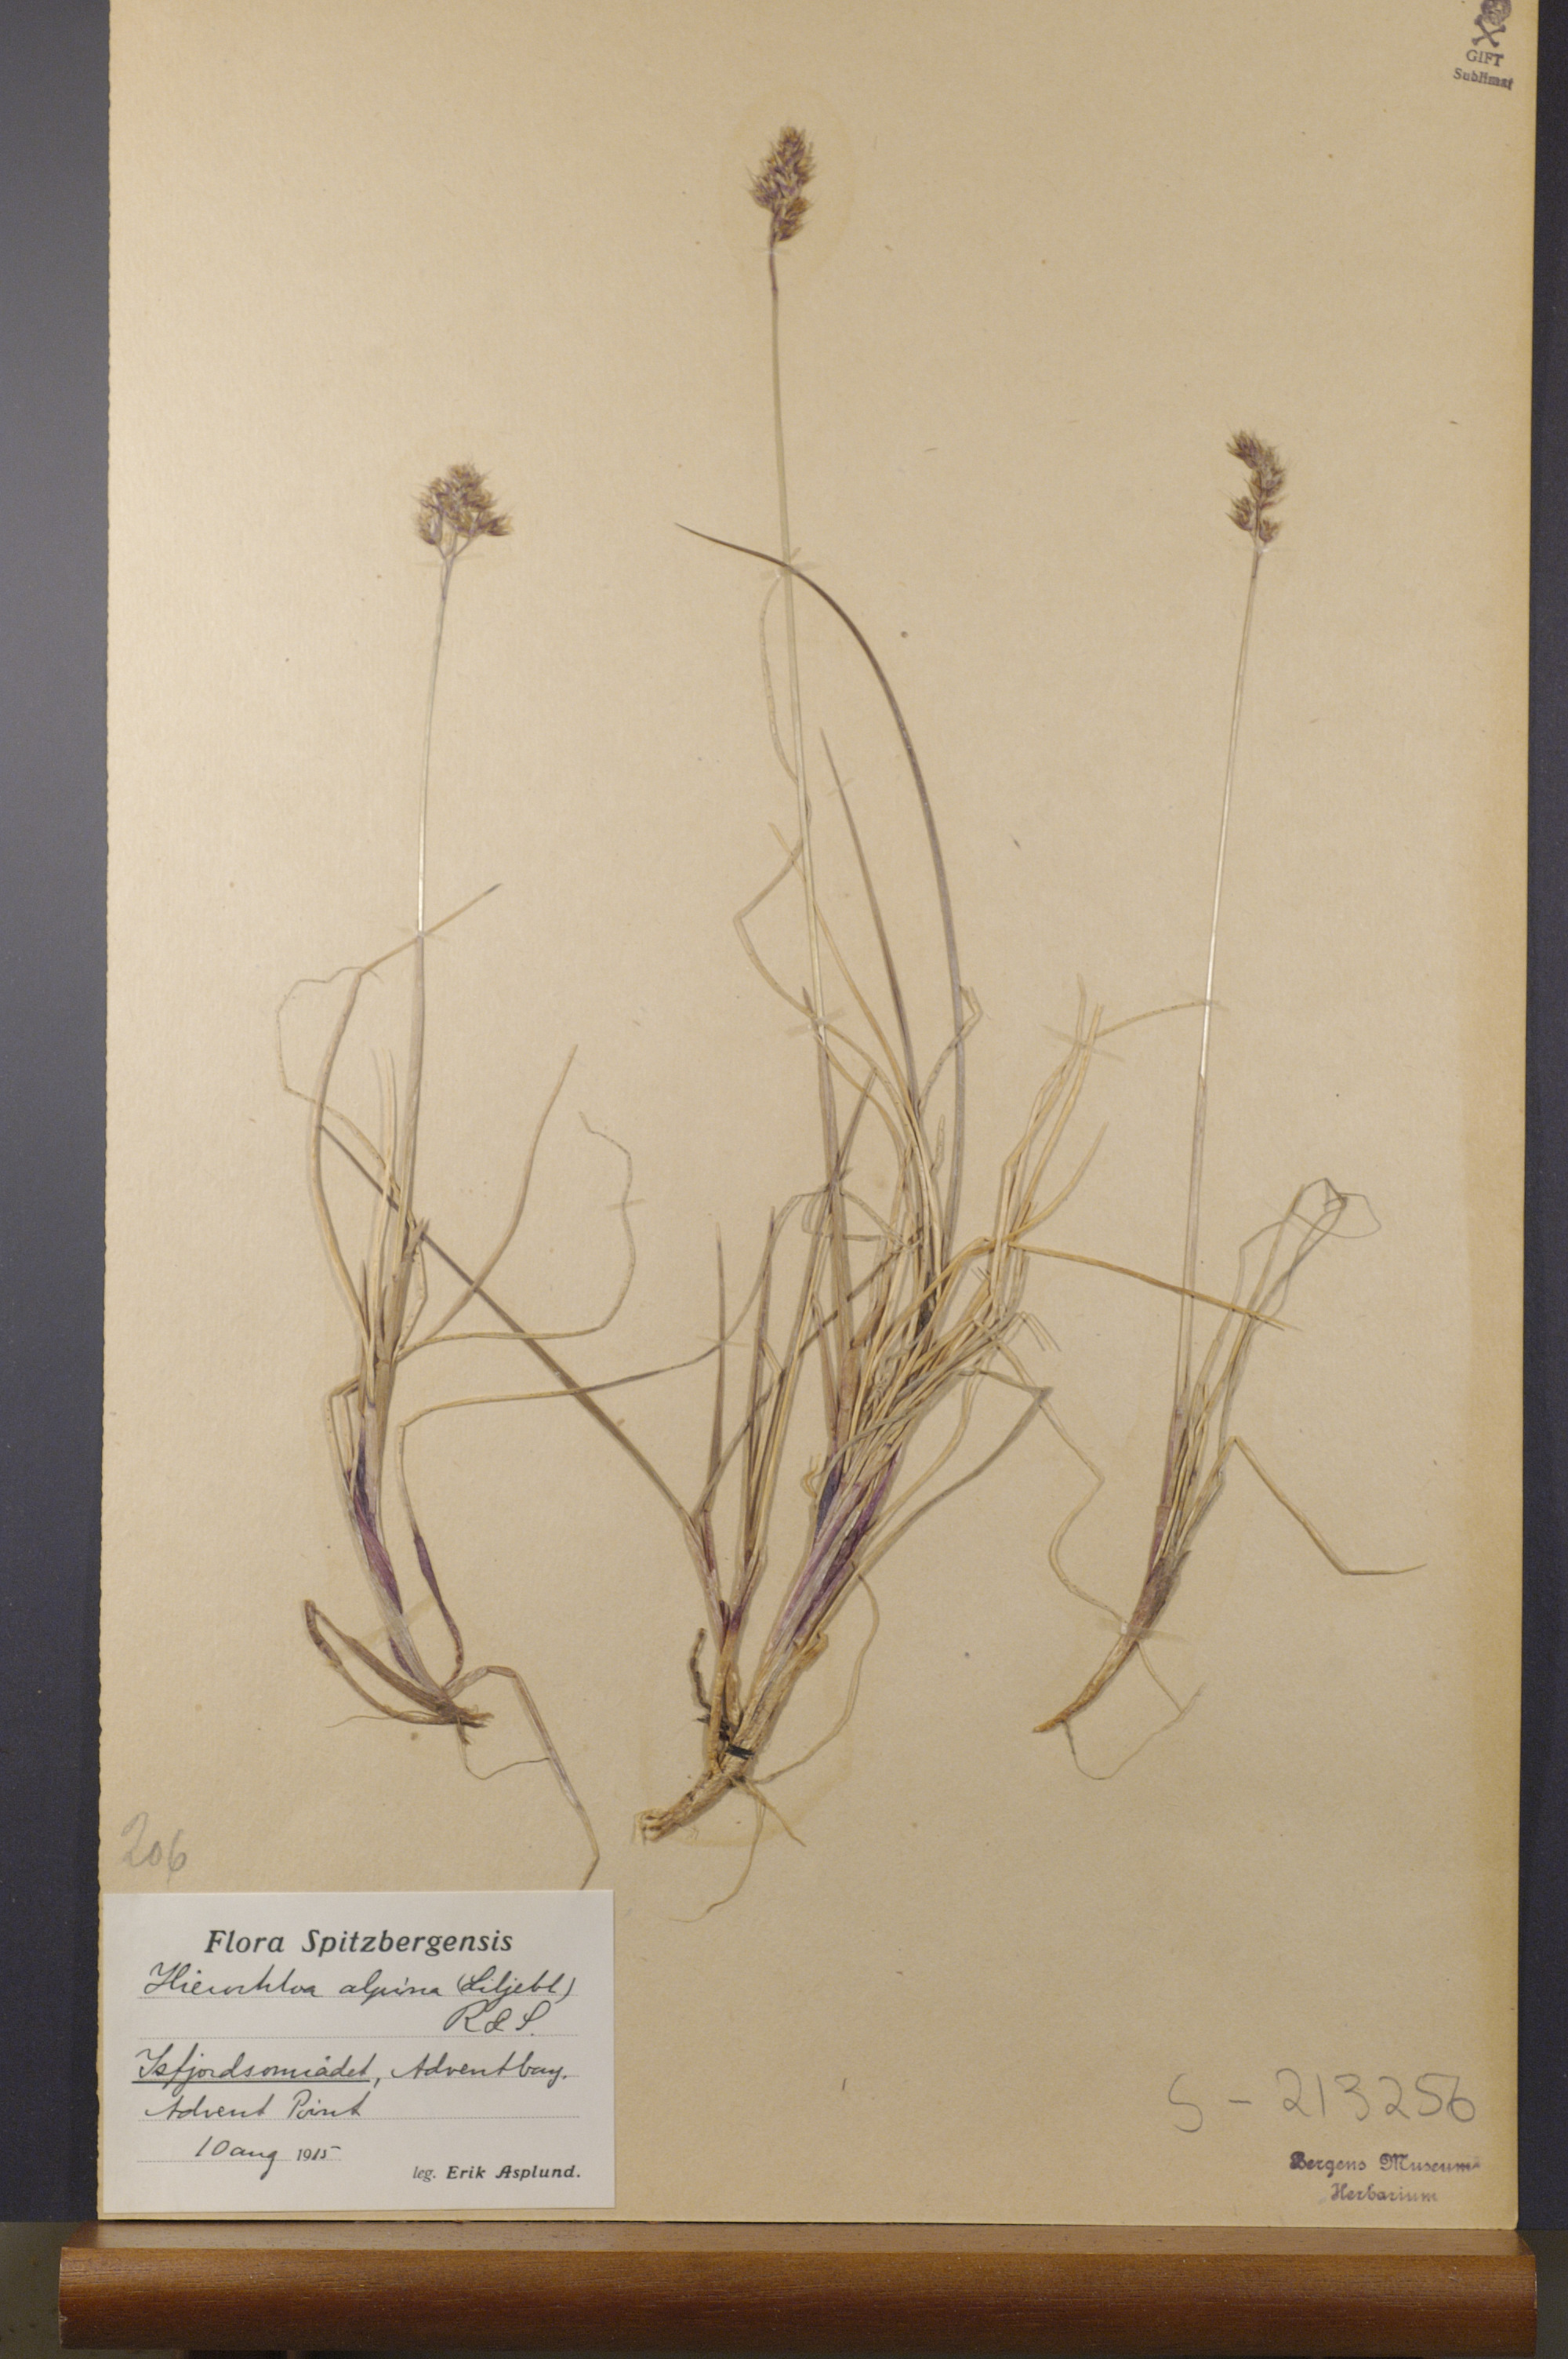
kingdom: Plantae
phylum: Tracheophyta
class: Liliopsida
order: Poales
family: Poaceae
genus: Anthoxanthum
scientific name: Anthoxanthum monticola
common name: Alpine sweetgrass
